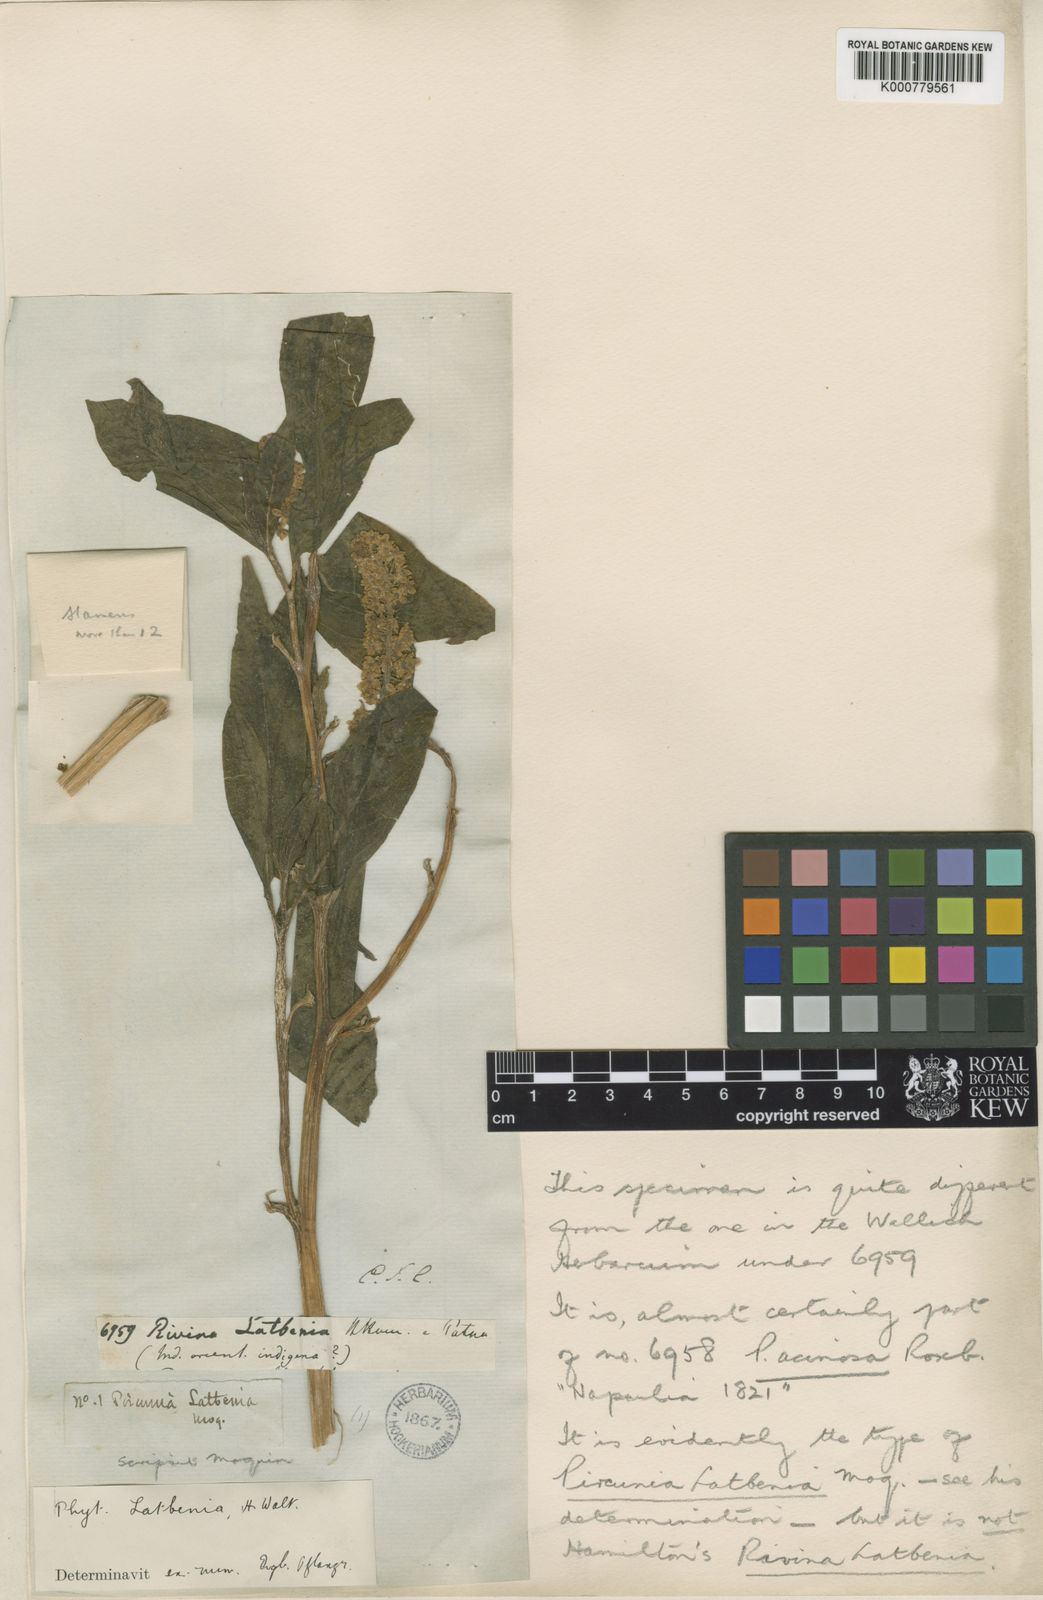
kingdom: Plantae
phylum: Tracheophyta
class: Magnoliopsida
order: Caryophyllales
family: Phytolaccaceae
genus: Phytolacca
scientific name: Phytolacca acinosa
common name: Indian pokeweed
